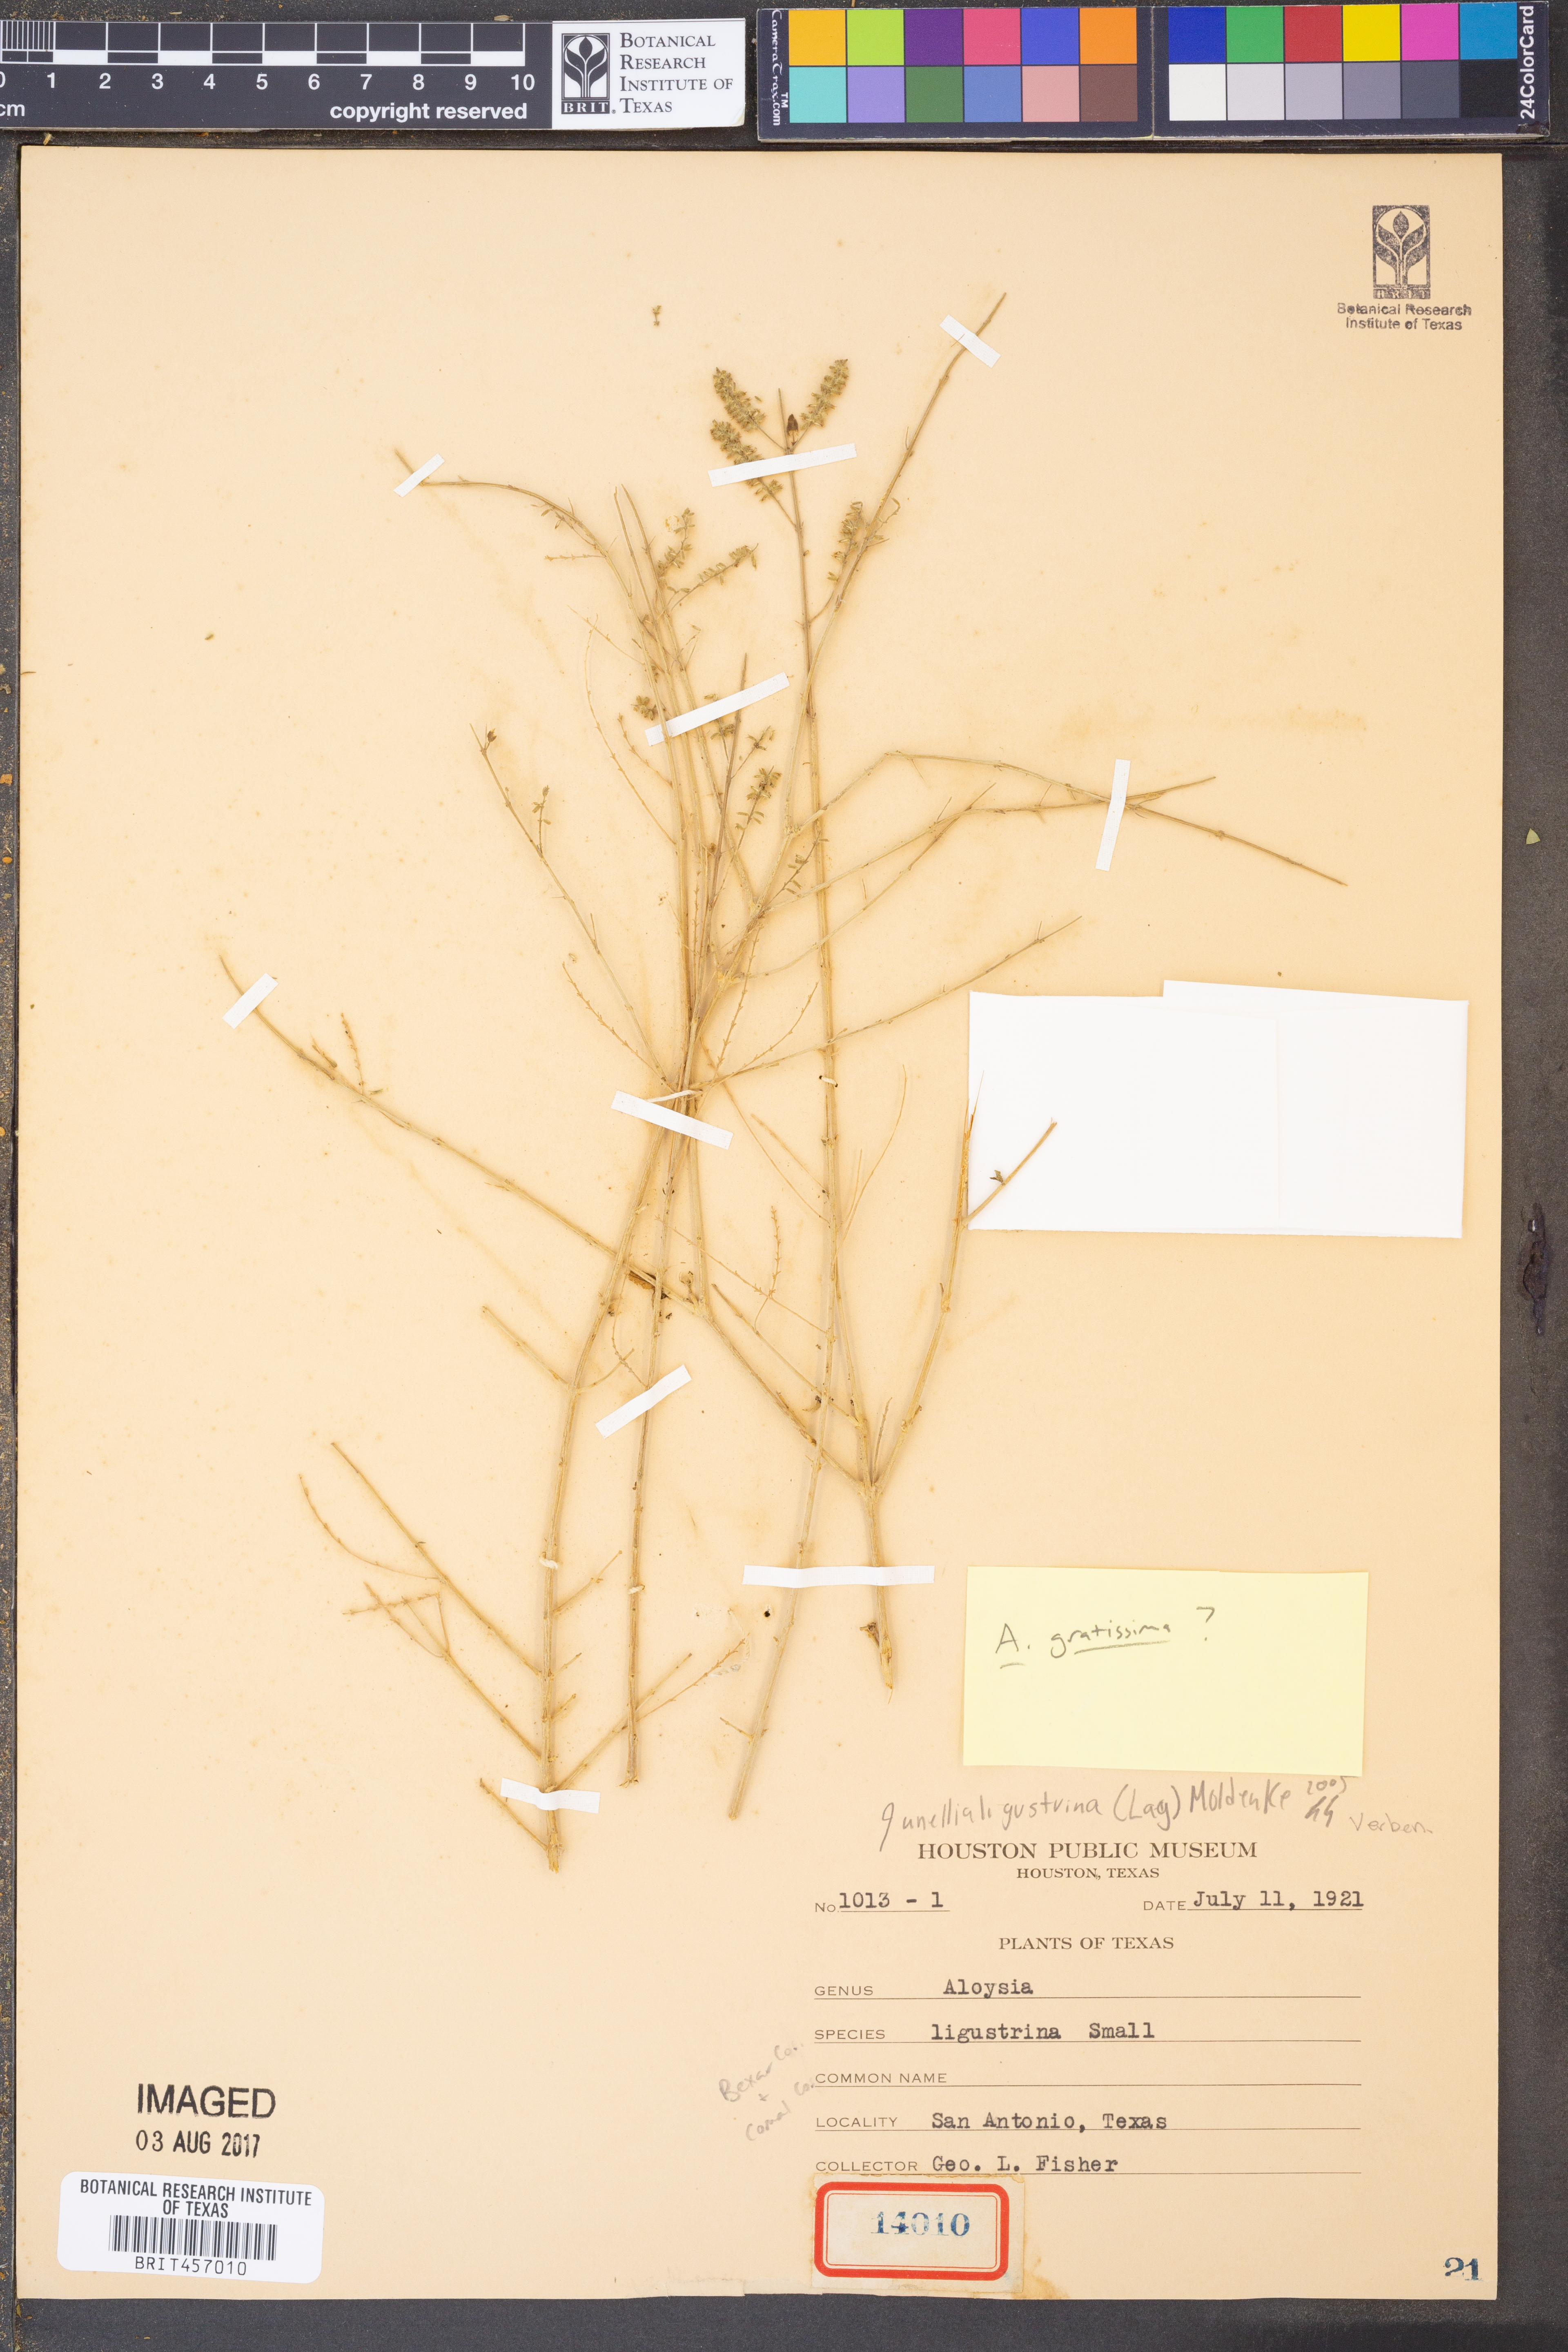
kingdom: Plantae
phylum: Tracheophyta
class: Magnoliopsida
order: Lamiales
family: Verbenaceae
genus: Junellia
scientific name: Junellia
